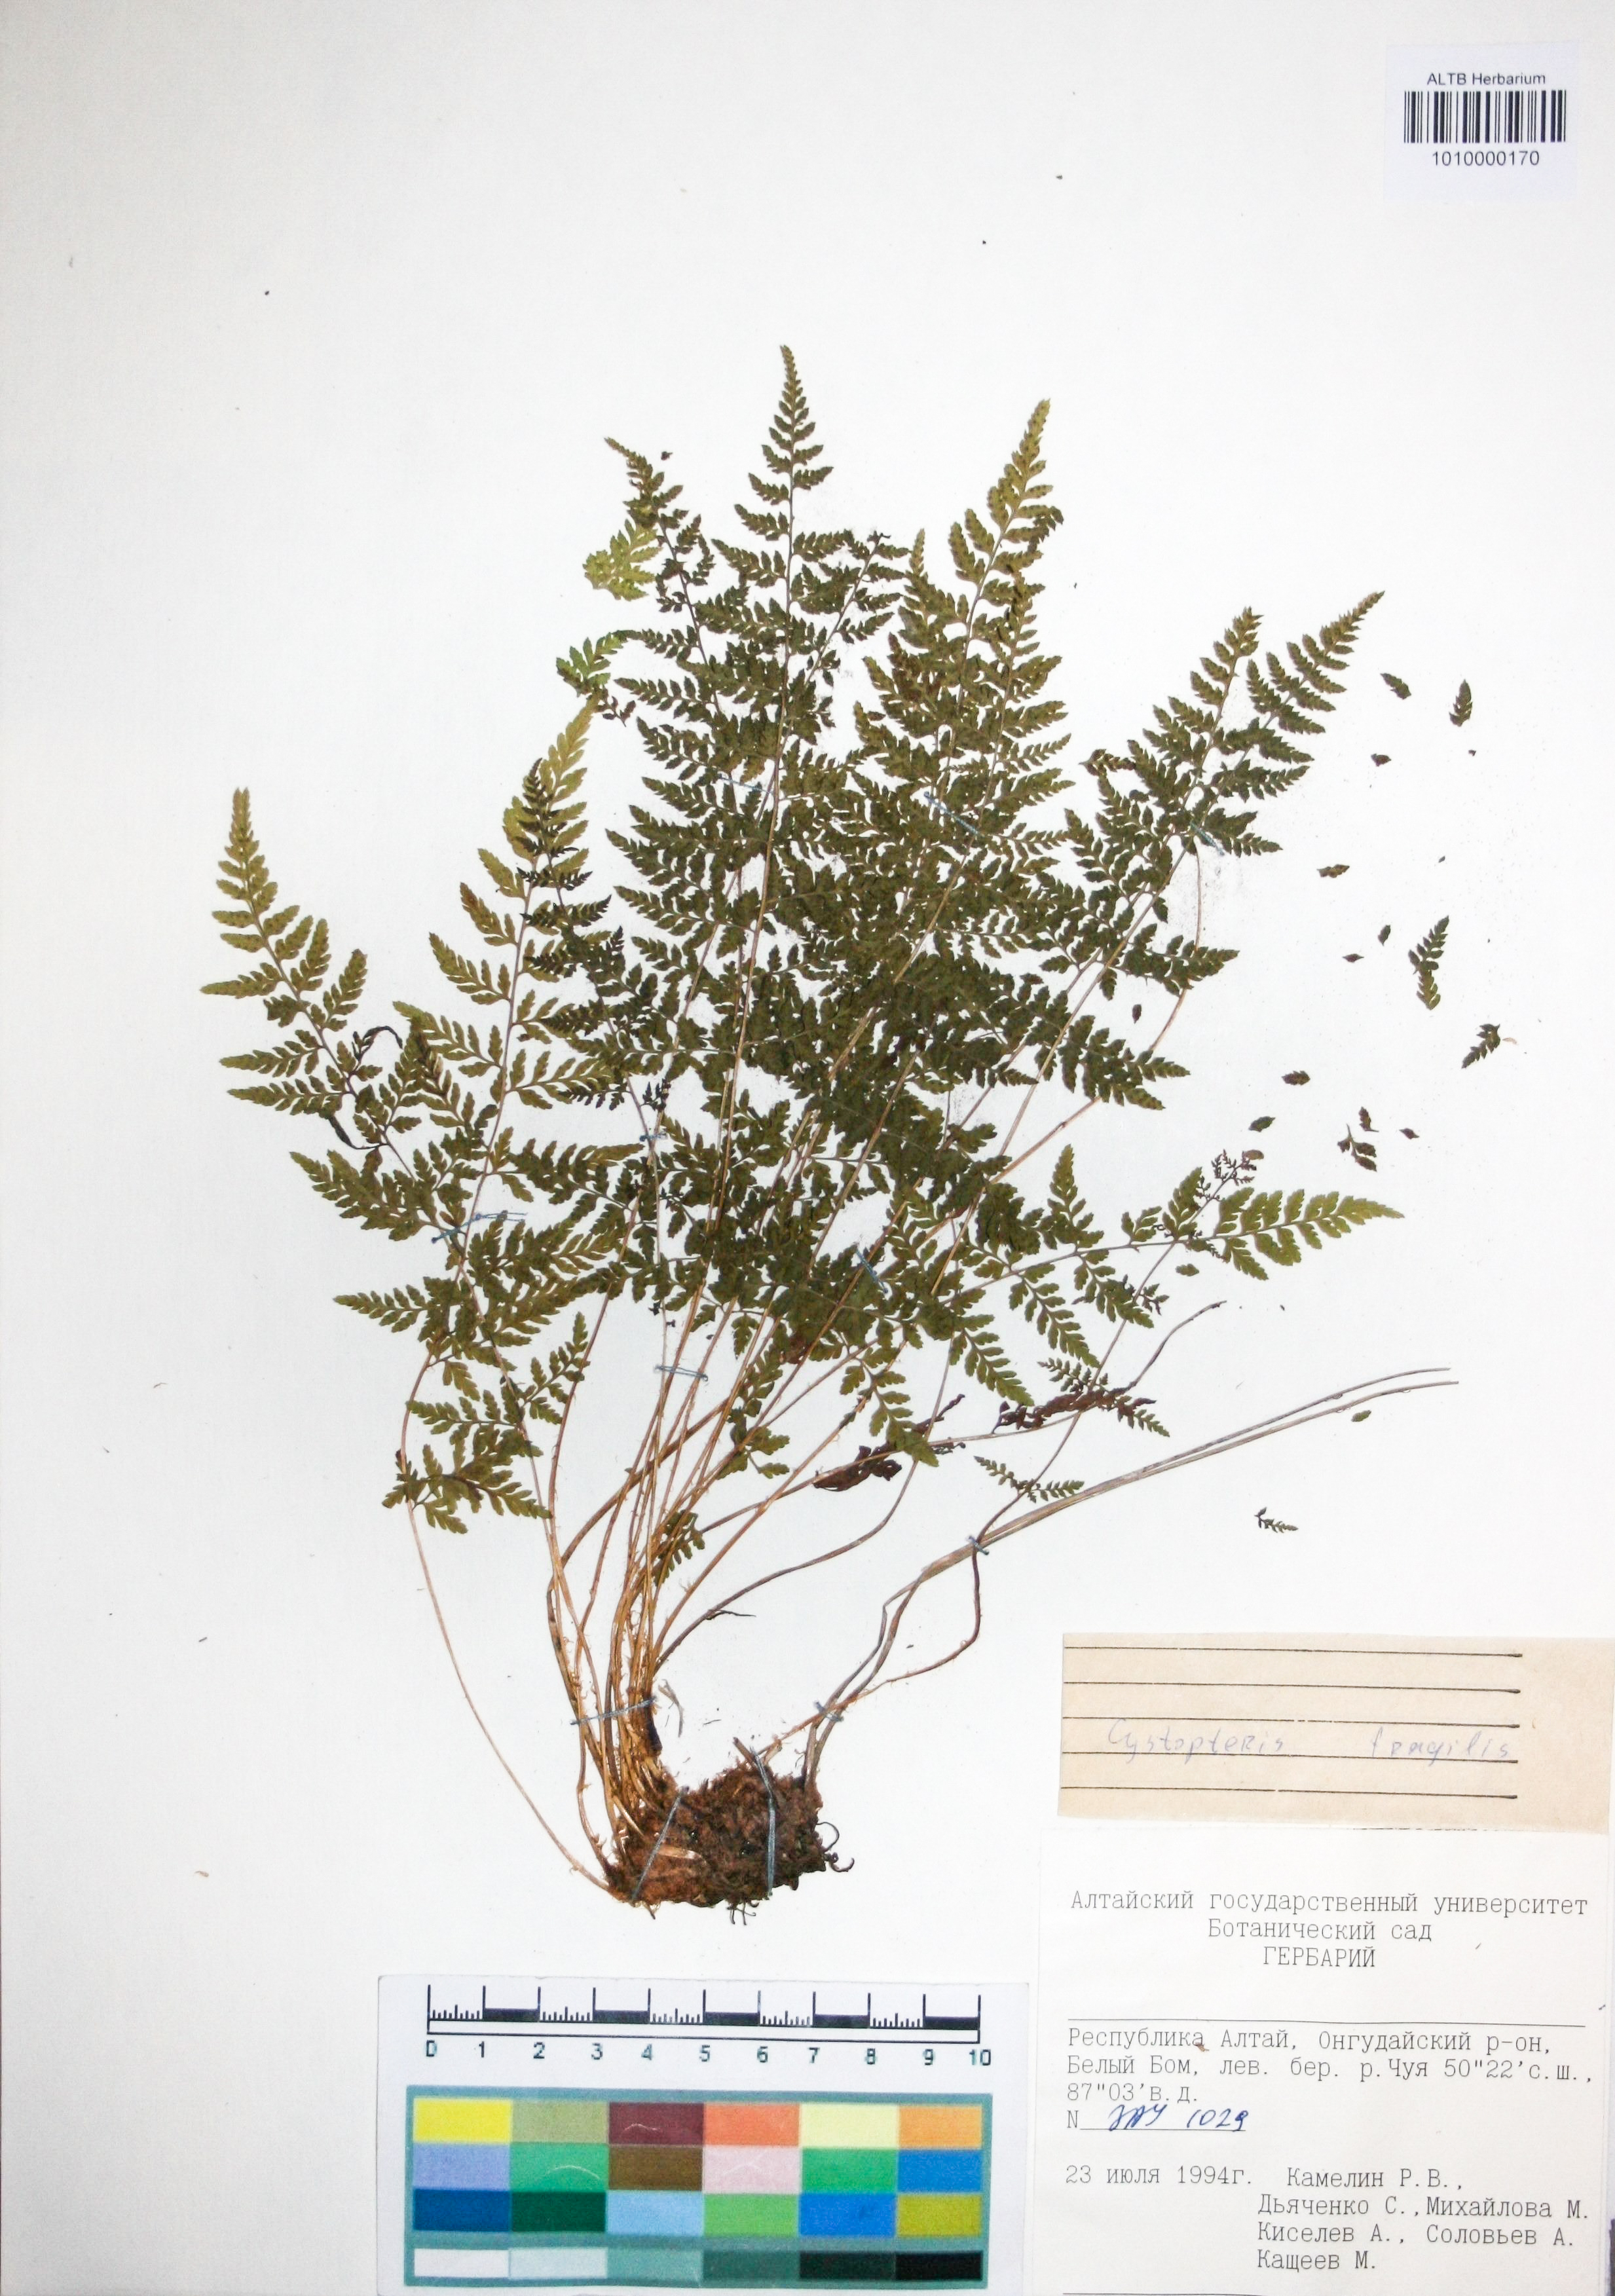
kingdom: Plantae
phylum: Tracheophyta
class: Polypodiopsida
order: Polypodiales
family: Cystopteridaceae
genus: Cystopteris
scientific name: Cystopteris fragilis
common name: Brittle bladder fern
